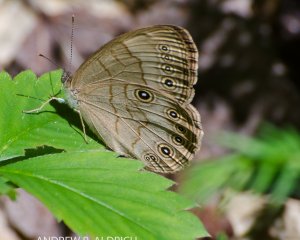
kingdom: Animalia
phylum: Arthropoda
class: Insecta
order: Lepidoptera
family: Nymphalidae
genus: Lethe
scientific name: Lethe eurydice
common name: Appalachian Eyed Brown
